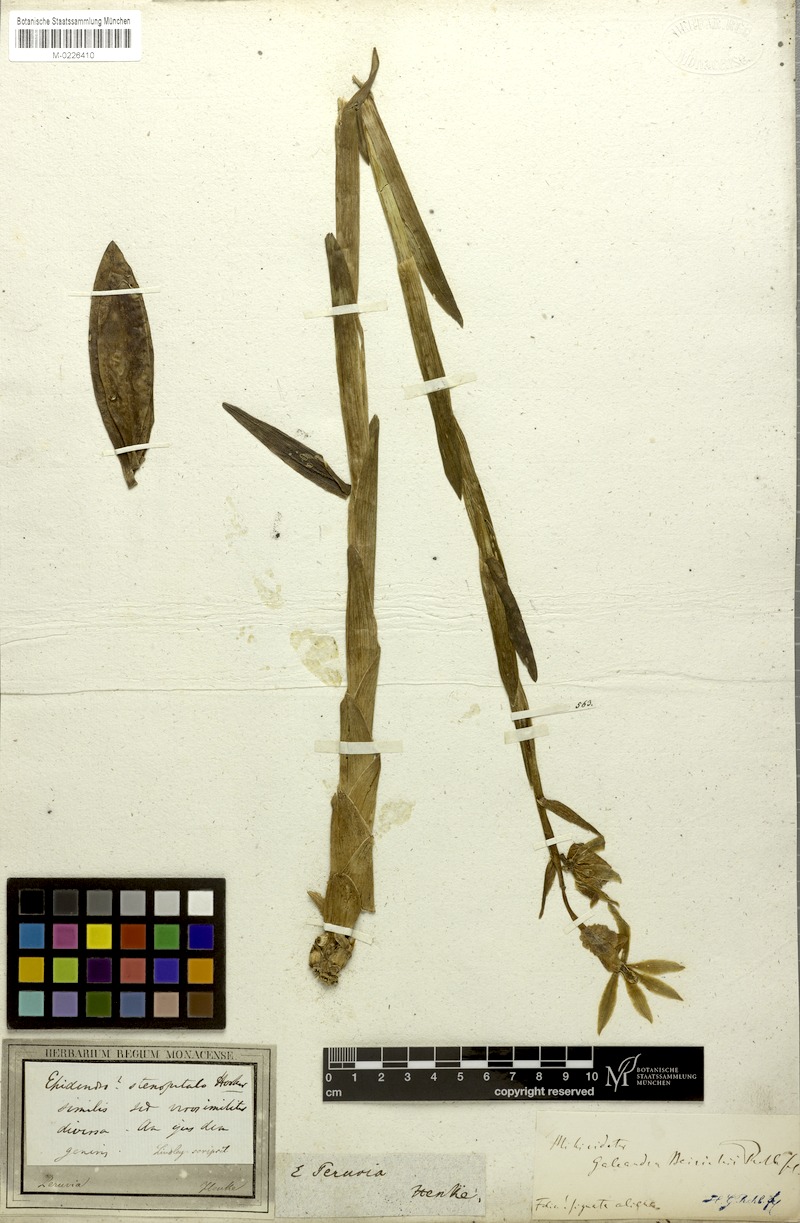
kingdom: Plantae
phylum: Tracheophyta
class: Liliopsida
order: Asparagales
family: Orchidaceae
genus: Galeandra
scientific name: Galeandra beyrichii
